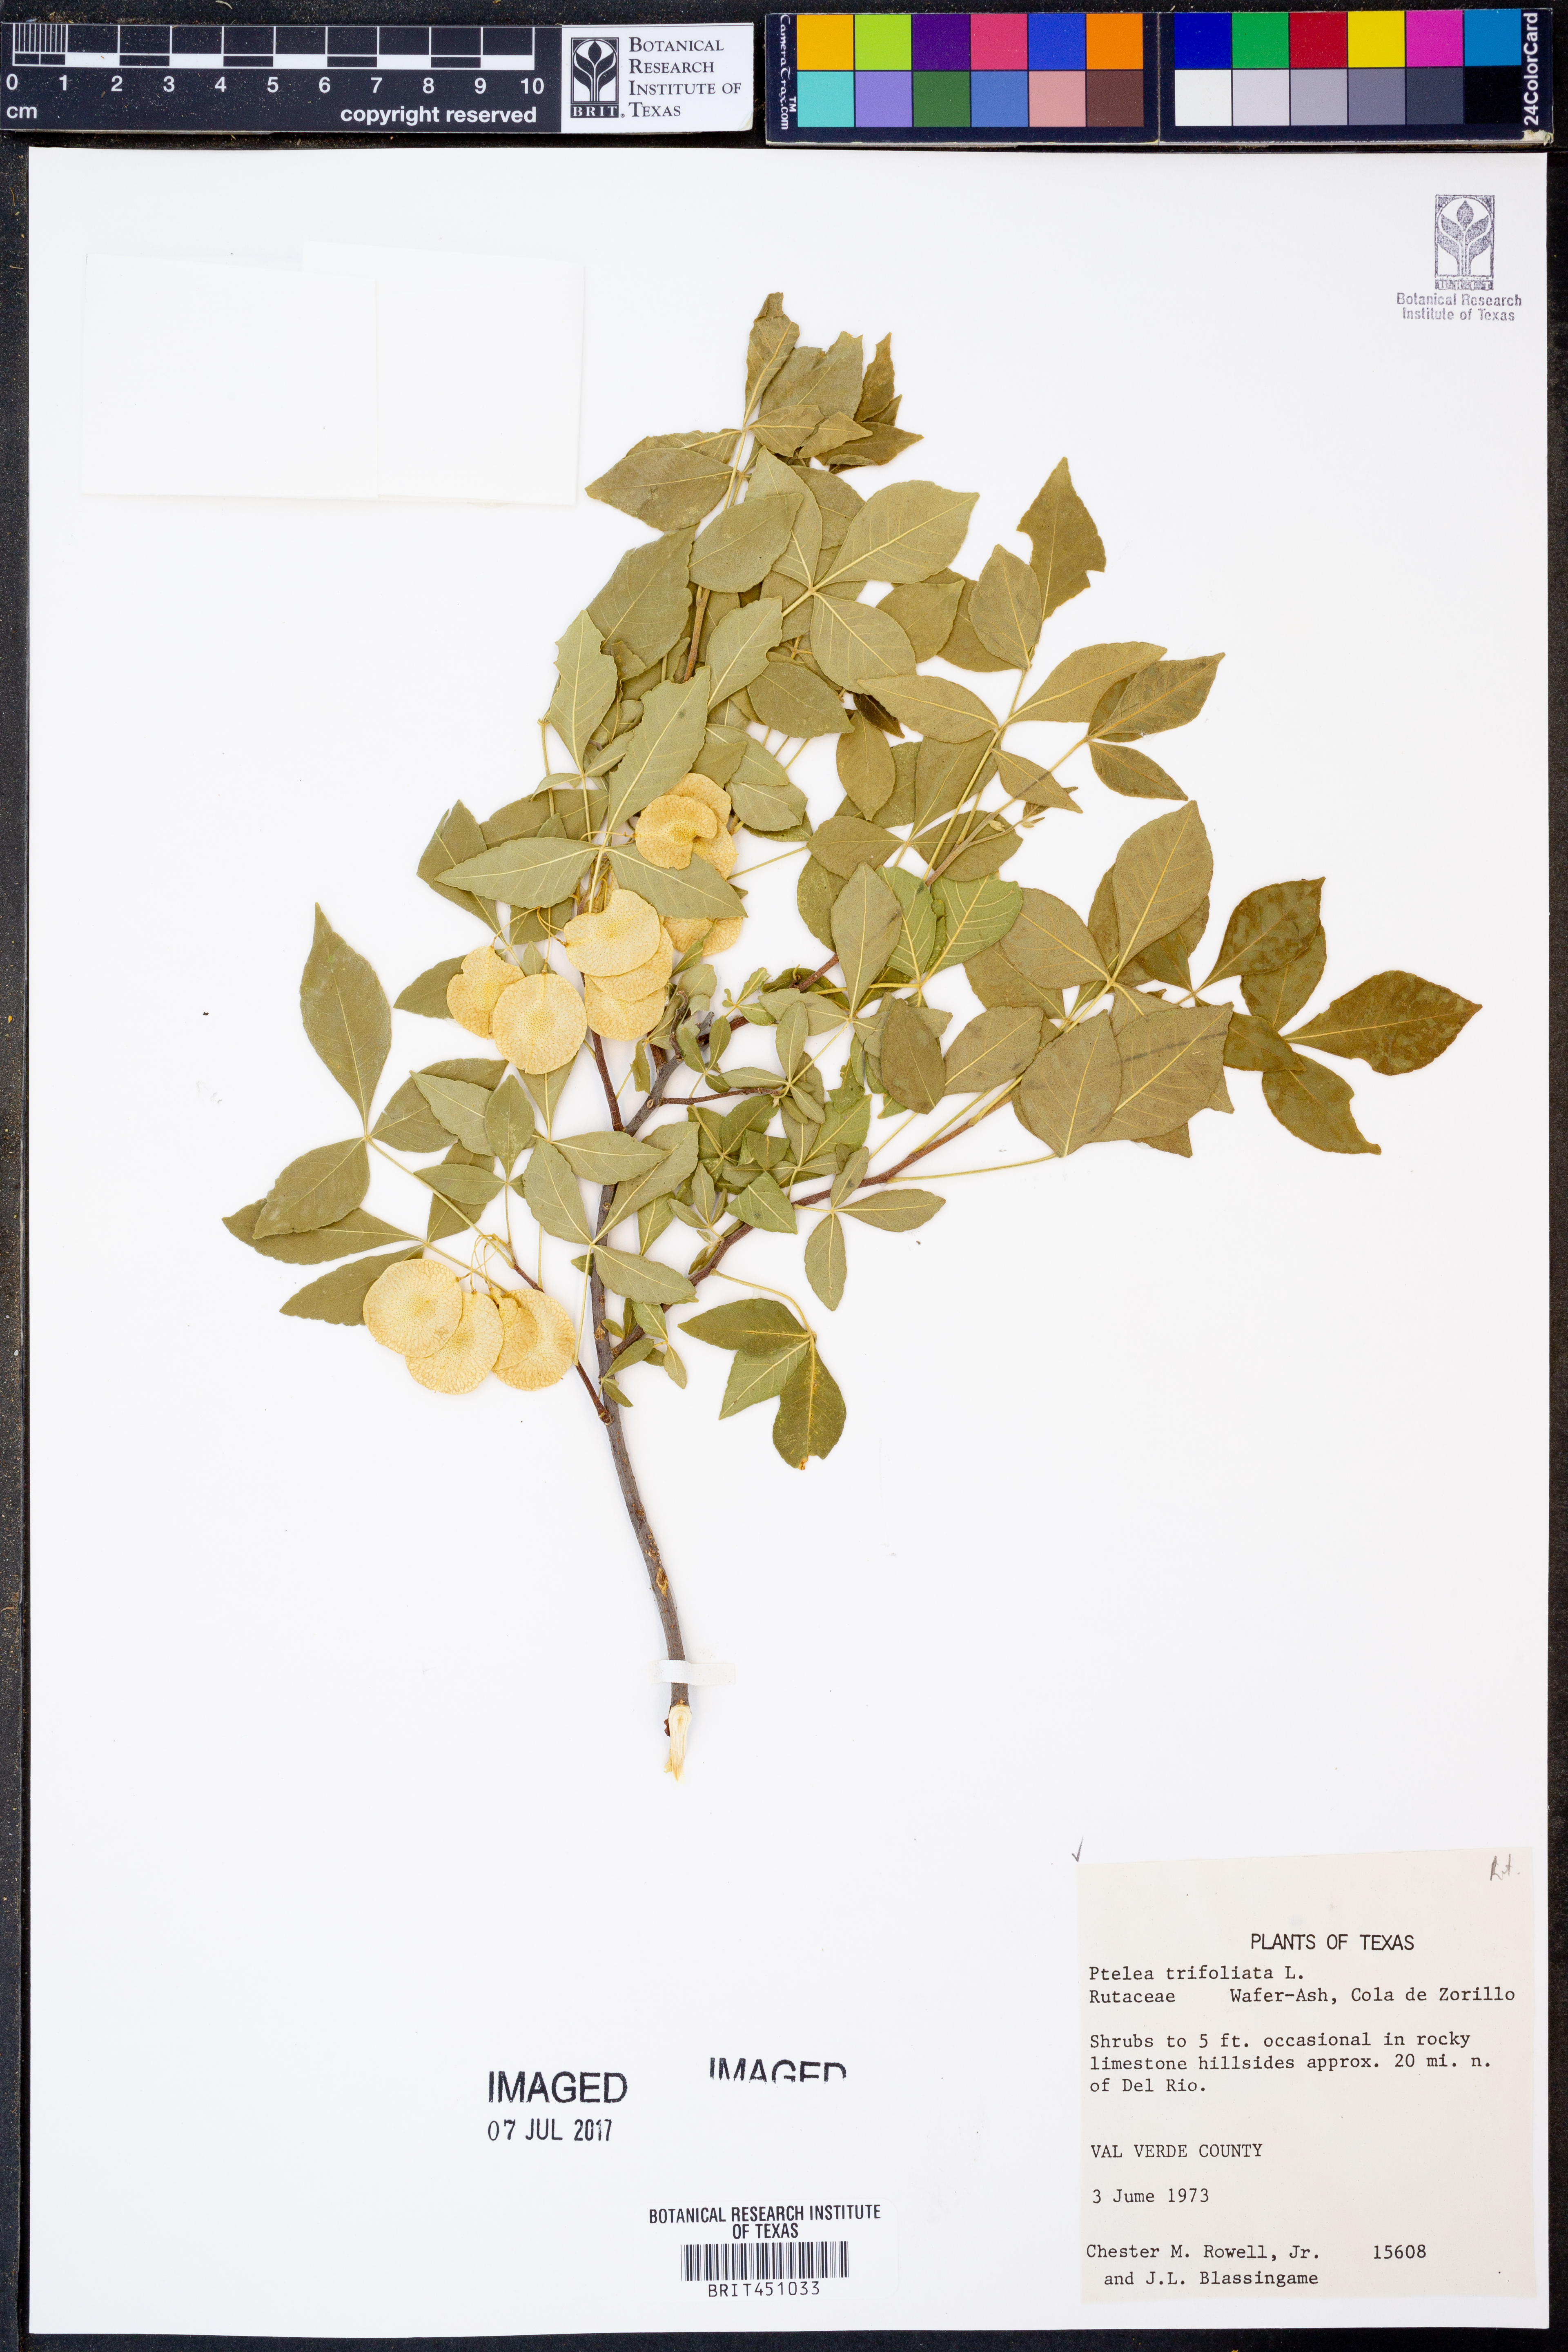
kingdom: Plantae
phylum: Tracheophyta
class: Magnoliopsida
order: Sapindales
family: Rutaceae
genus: Ptelea
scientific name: Ptelea trifoliata
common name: Common hop-tree
